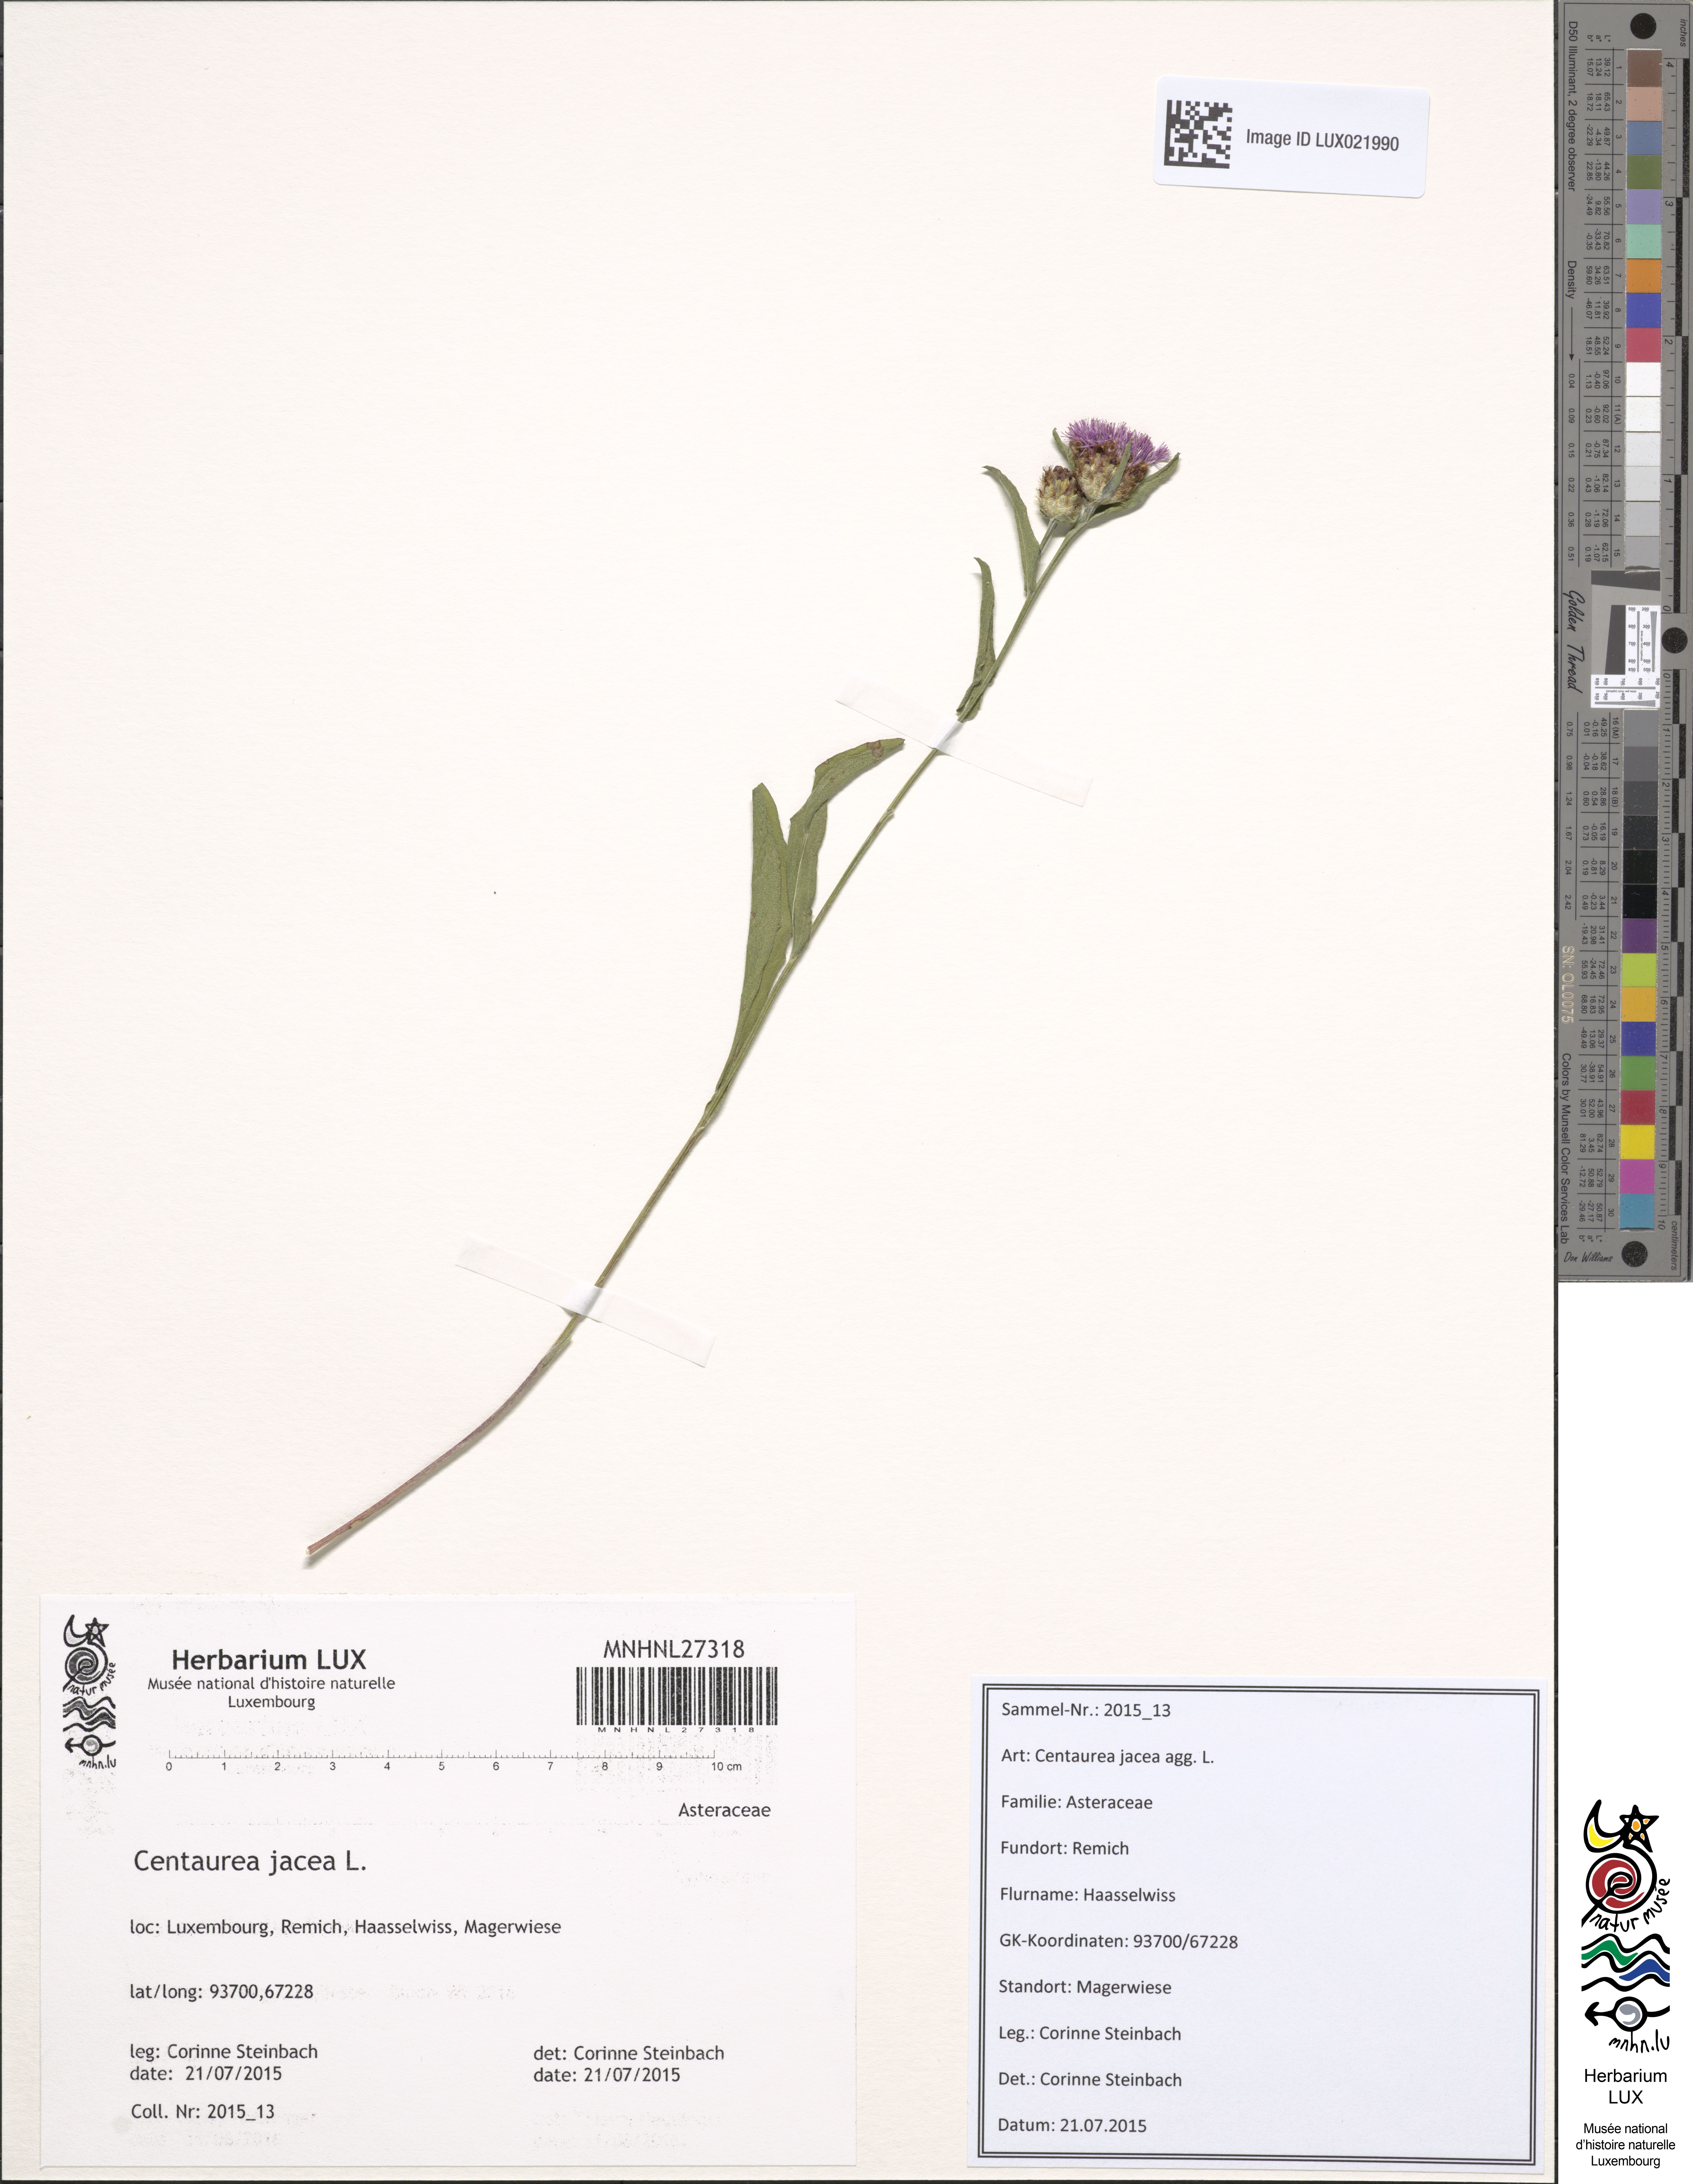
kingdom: Plantae
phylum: Tracheophyta
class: Magnoliopsida
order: Asterales
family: Asteraceae
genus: Centaurea
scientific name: Centaurea jacea
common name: Brown knapweed
